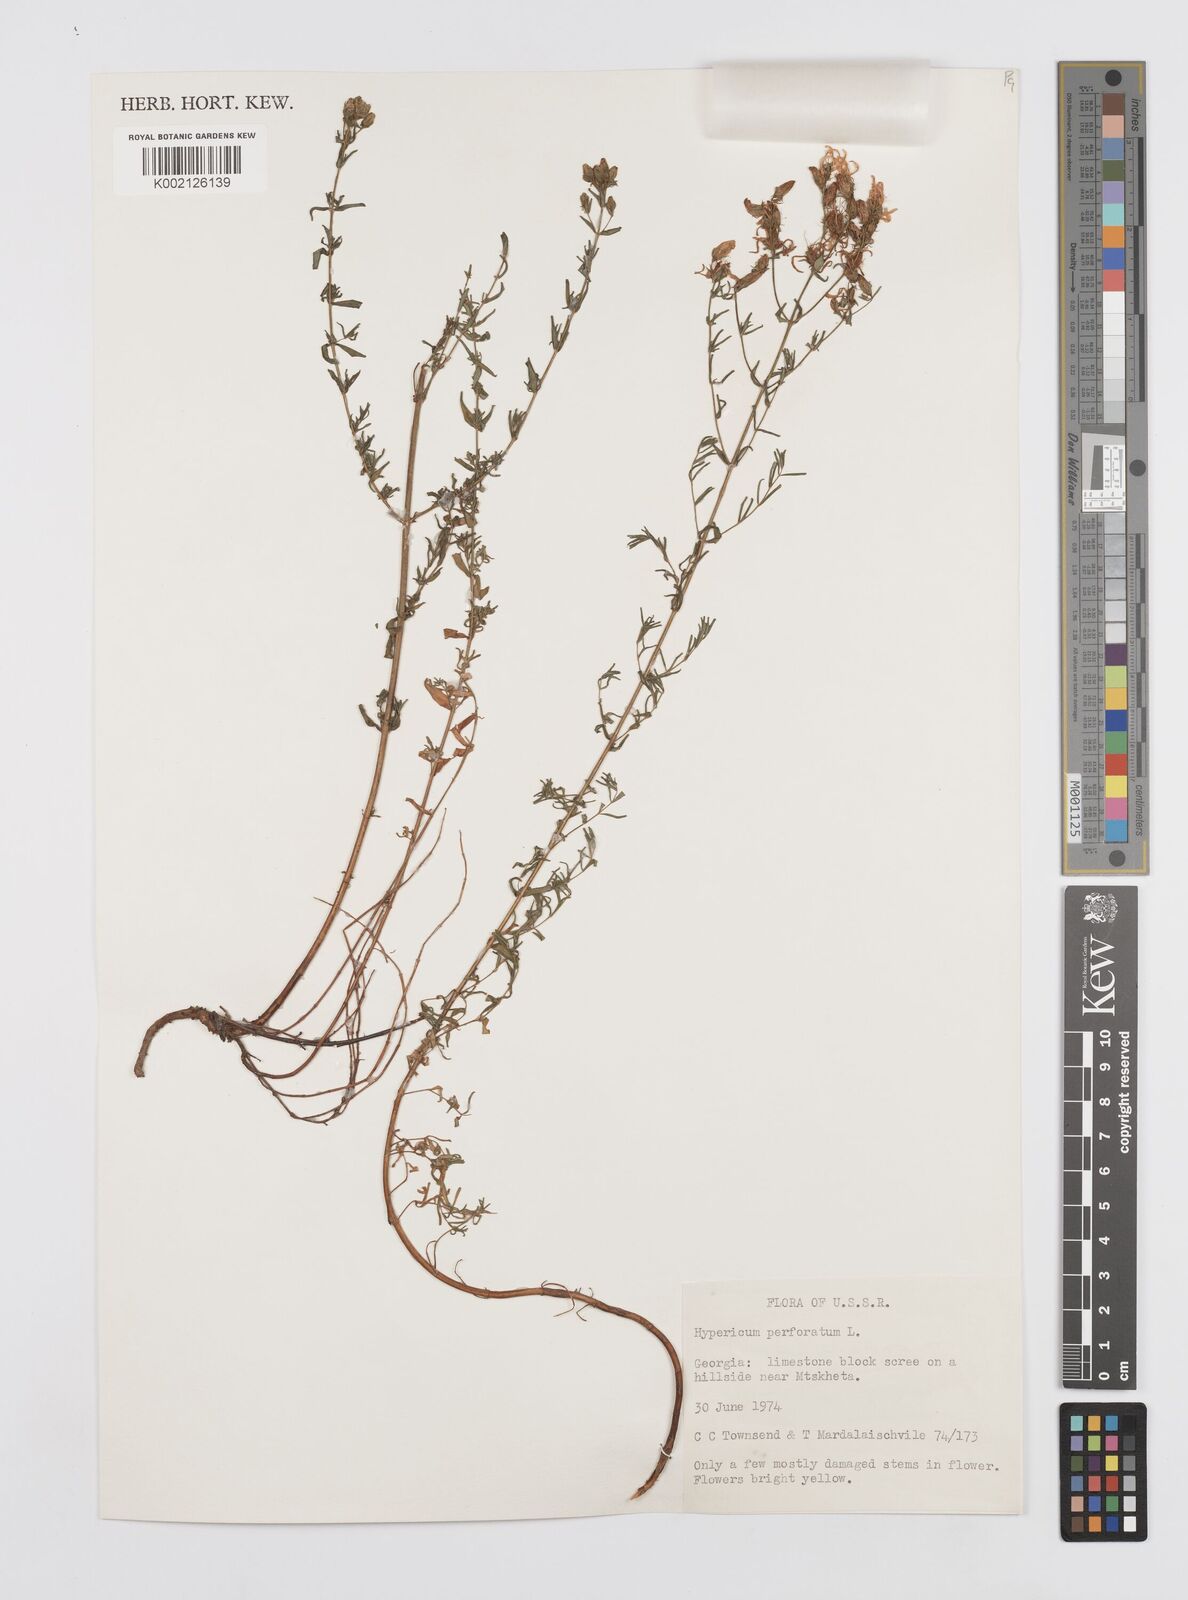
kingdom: Plantae
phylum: Tracheophyta
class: Magnoliopsida
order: Malpighiales
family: Hypericaceae
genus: Hypericum
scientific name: Hypericum perfoliatum
